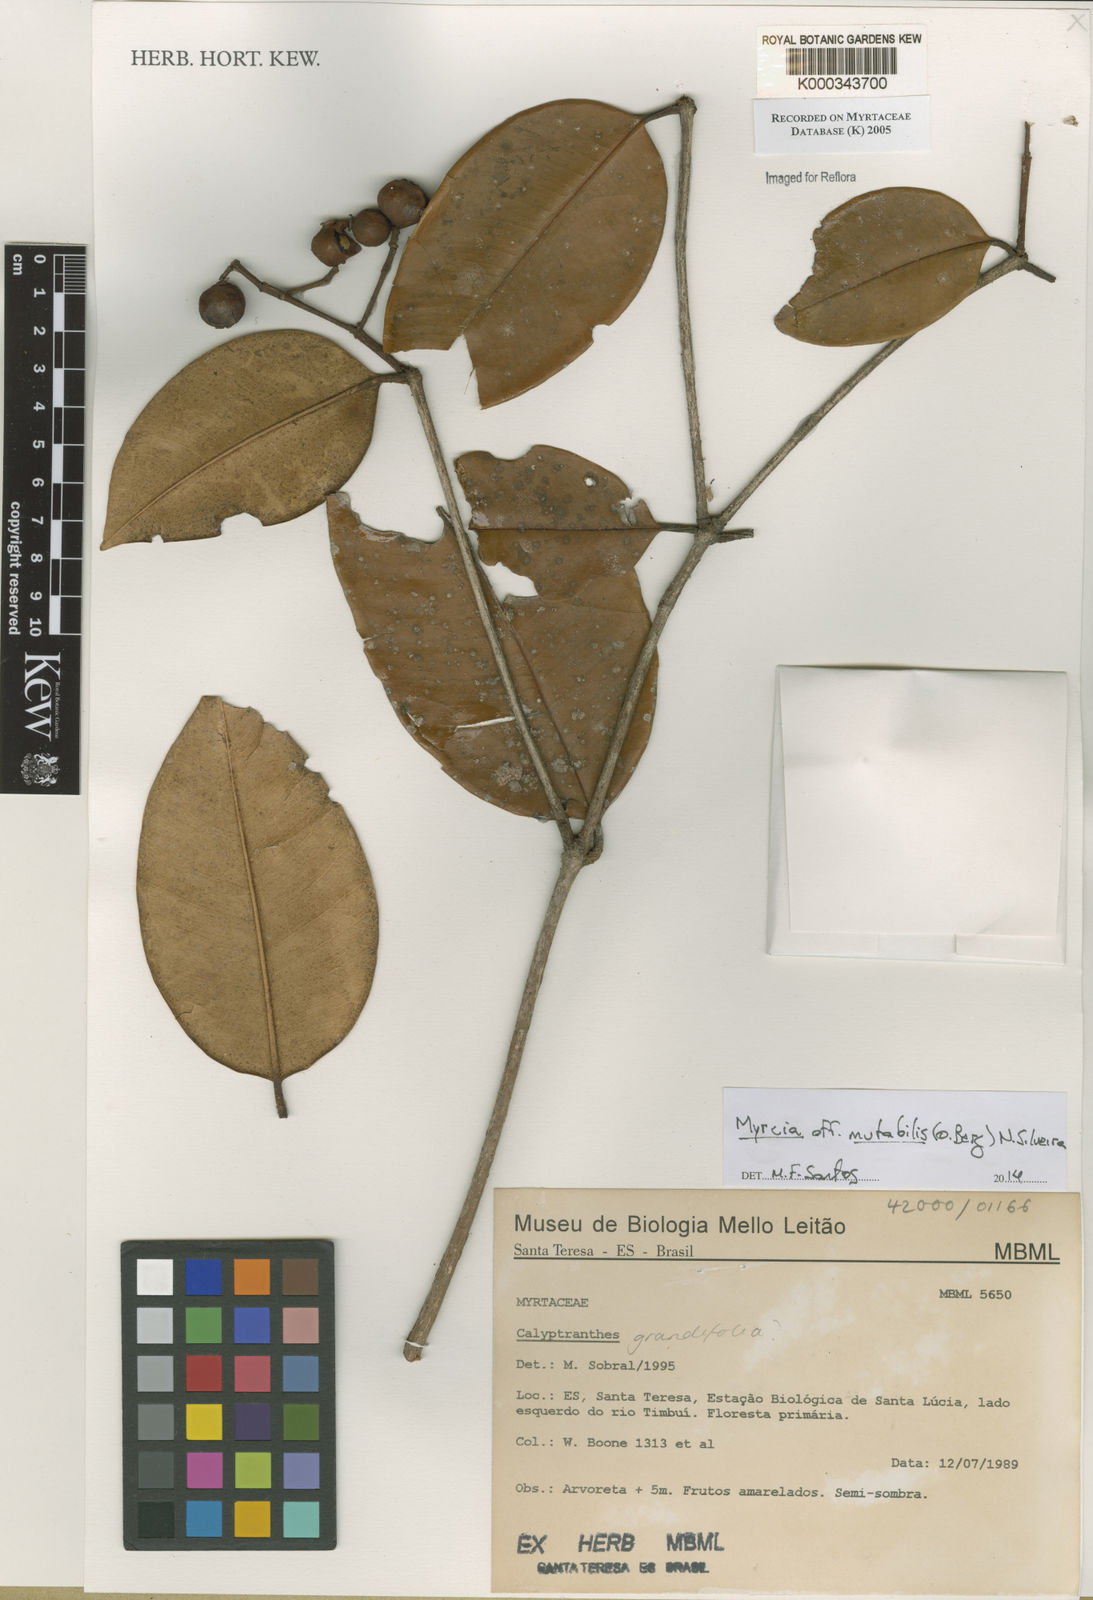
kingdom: Plantae
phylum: Tracheophyta
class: Magnoliopsida
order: Myrtales
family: Myrtaceae
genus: Calyptranthes
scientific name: Calyptranthes
